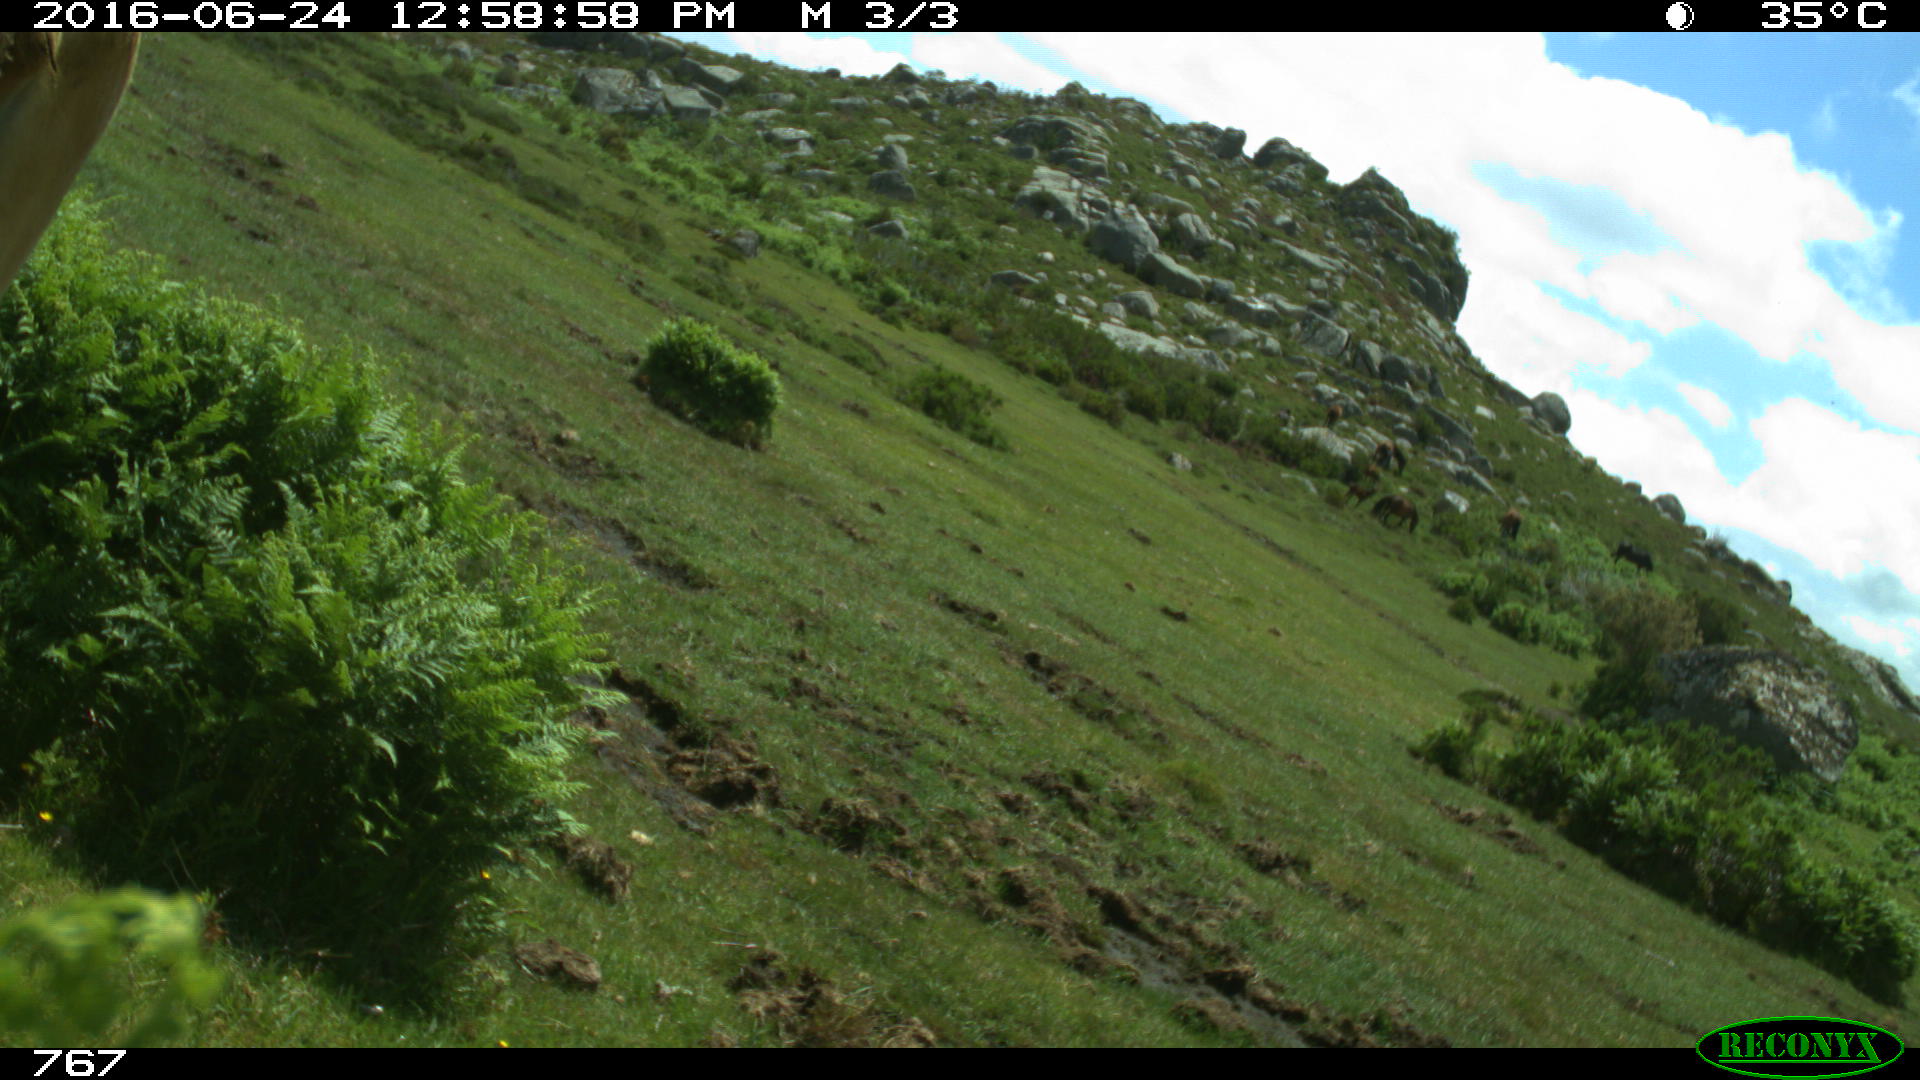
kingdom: Animalia
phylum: Chordata
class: Mammalia
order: Artiodactyla
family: Bovidae
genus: Bos
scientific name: Bos taurus
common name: Domesticated cattle
